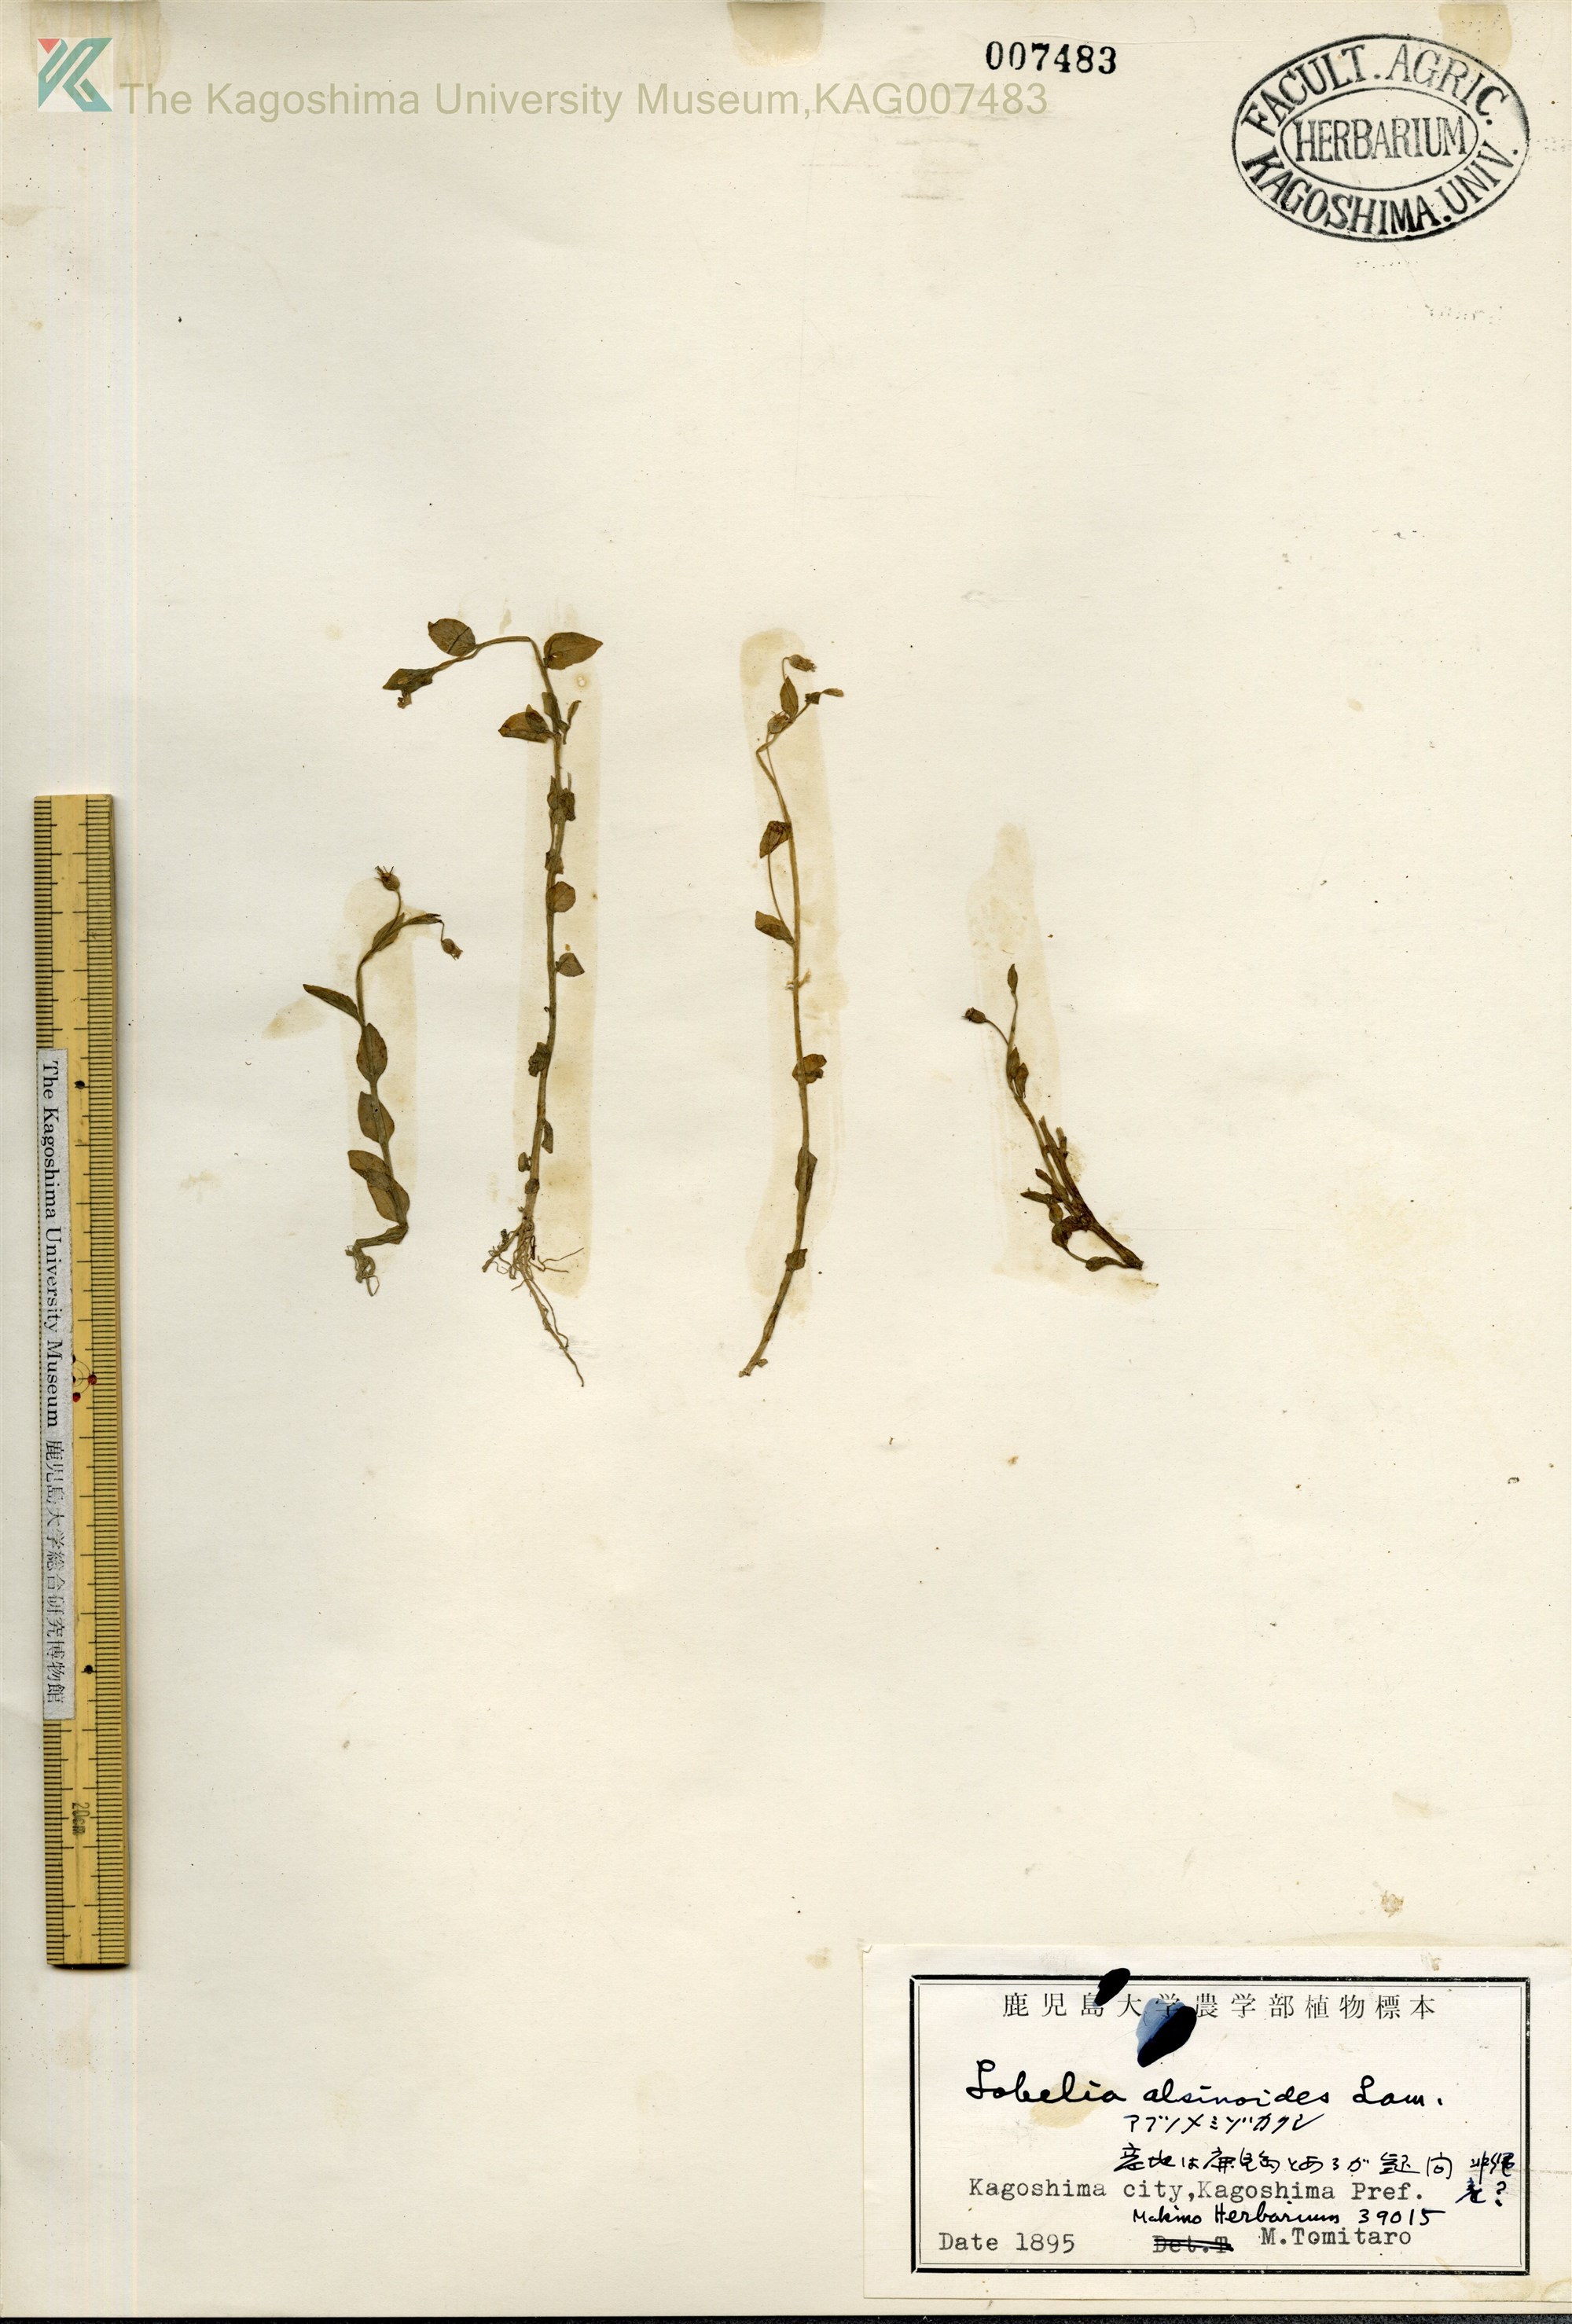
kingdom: Plantae
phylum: Tracheophyta
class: Magnoliopsida
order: Asterales
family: Campanulaceae
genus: Lobelia
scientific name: Lobelia alsinoides
